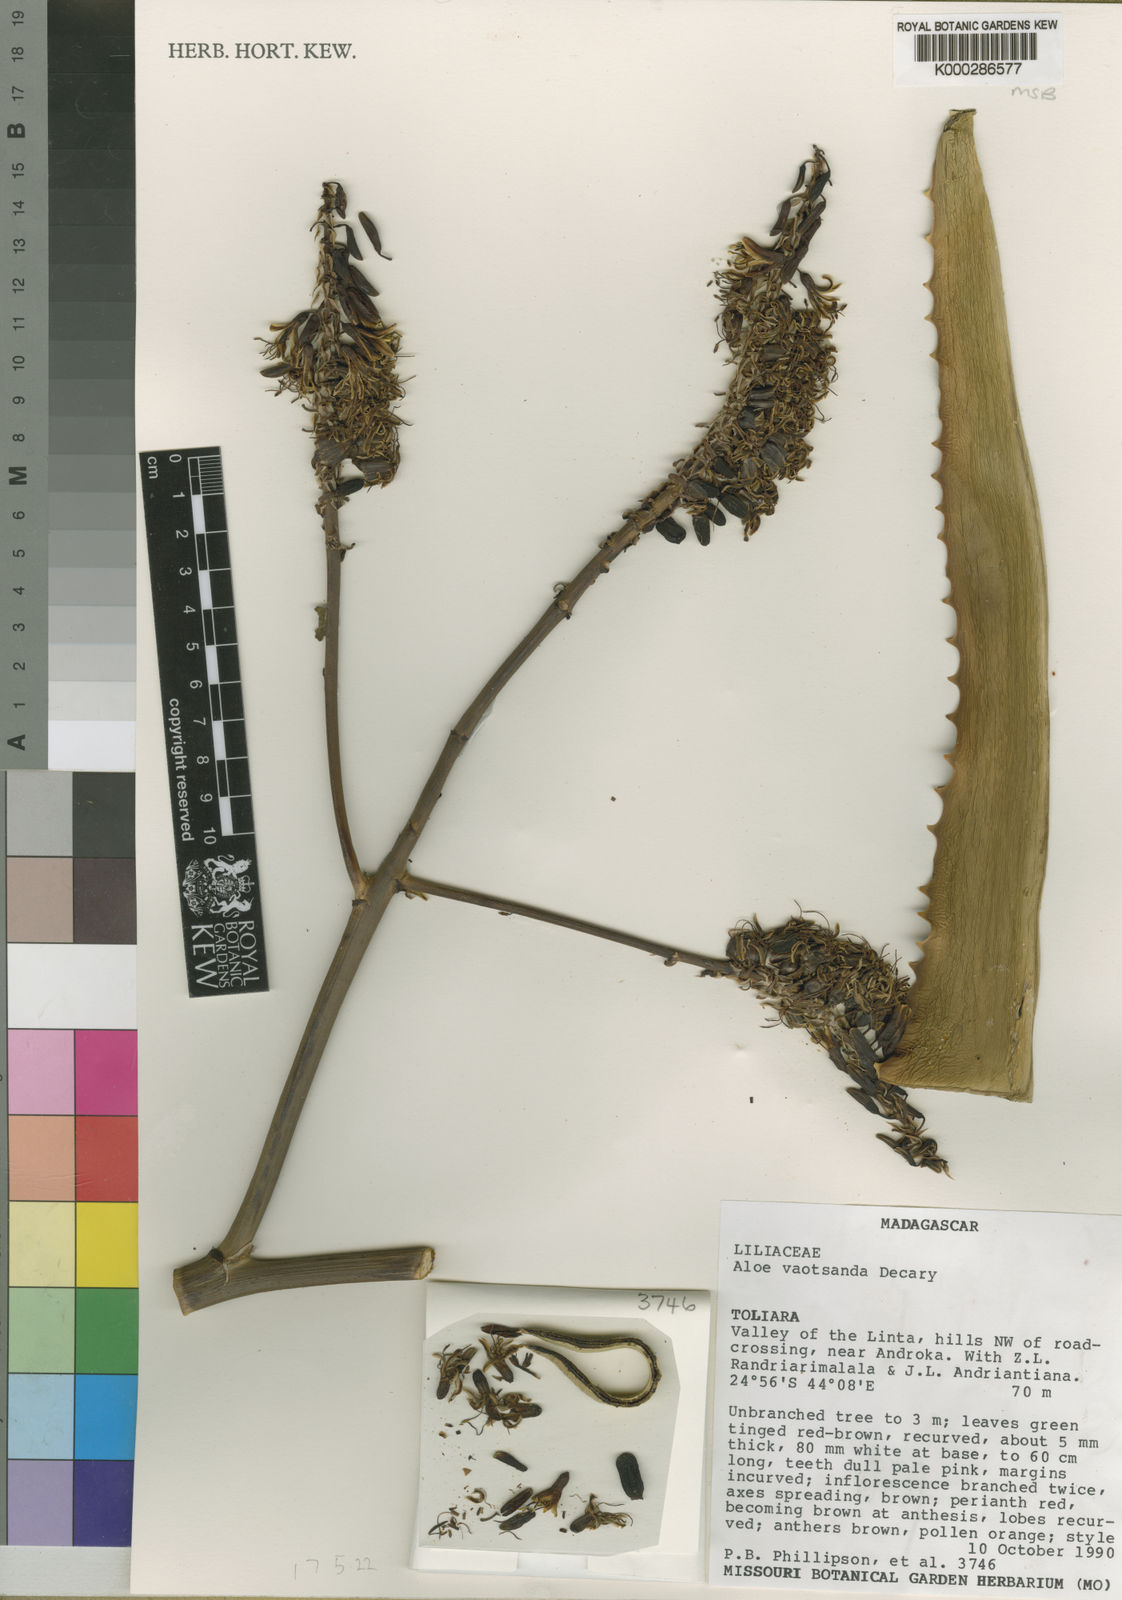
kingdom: Plantae
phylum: Tracheophyta
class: Liliopsida
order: Asparagales
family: Asphodelaceae
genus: Aloe
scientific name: Aloe vaotsanda
